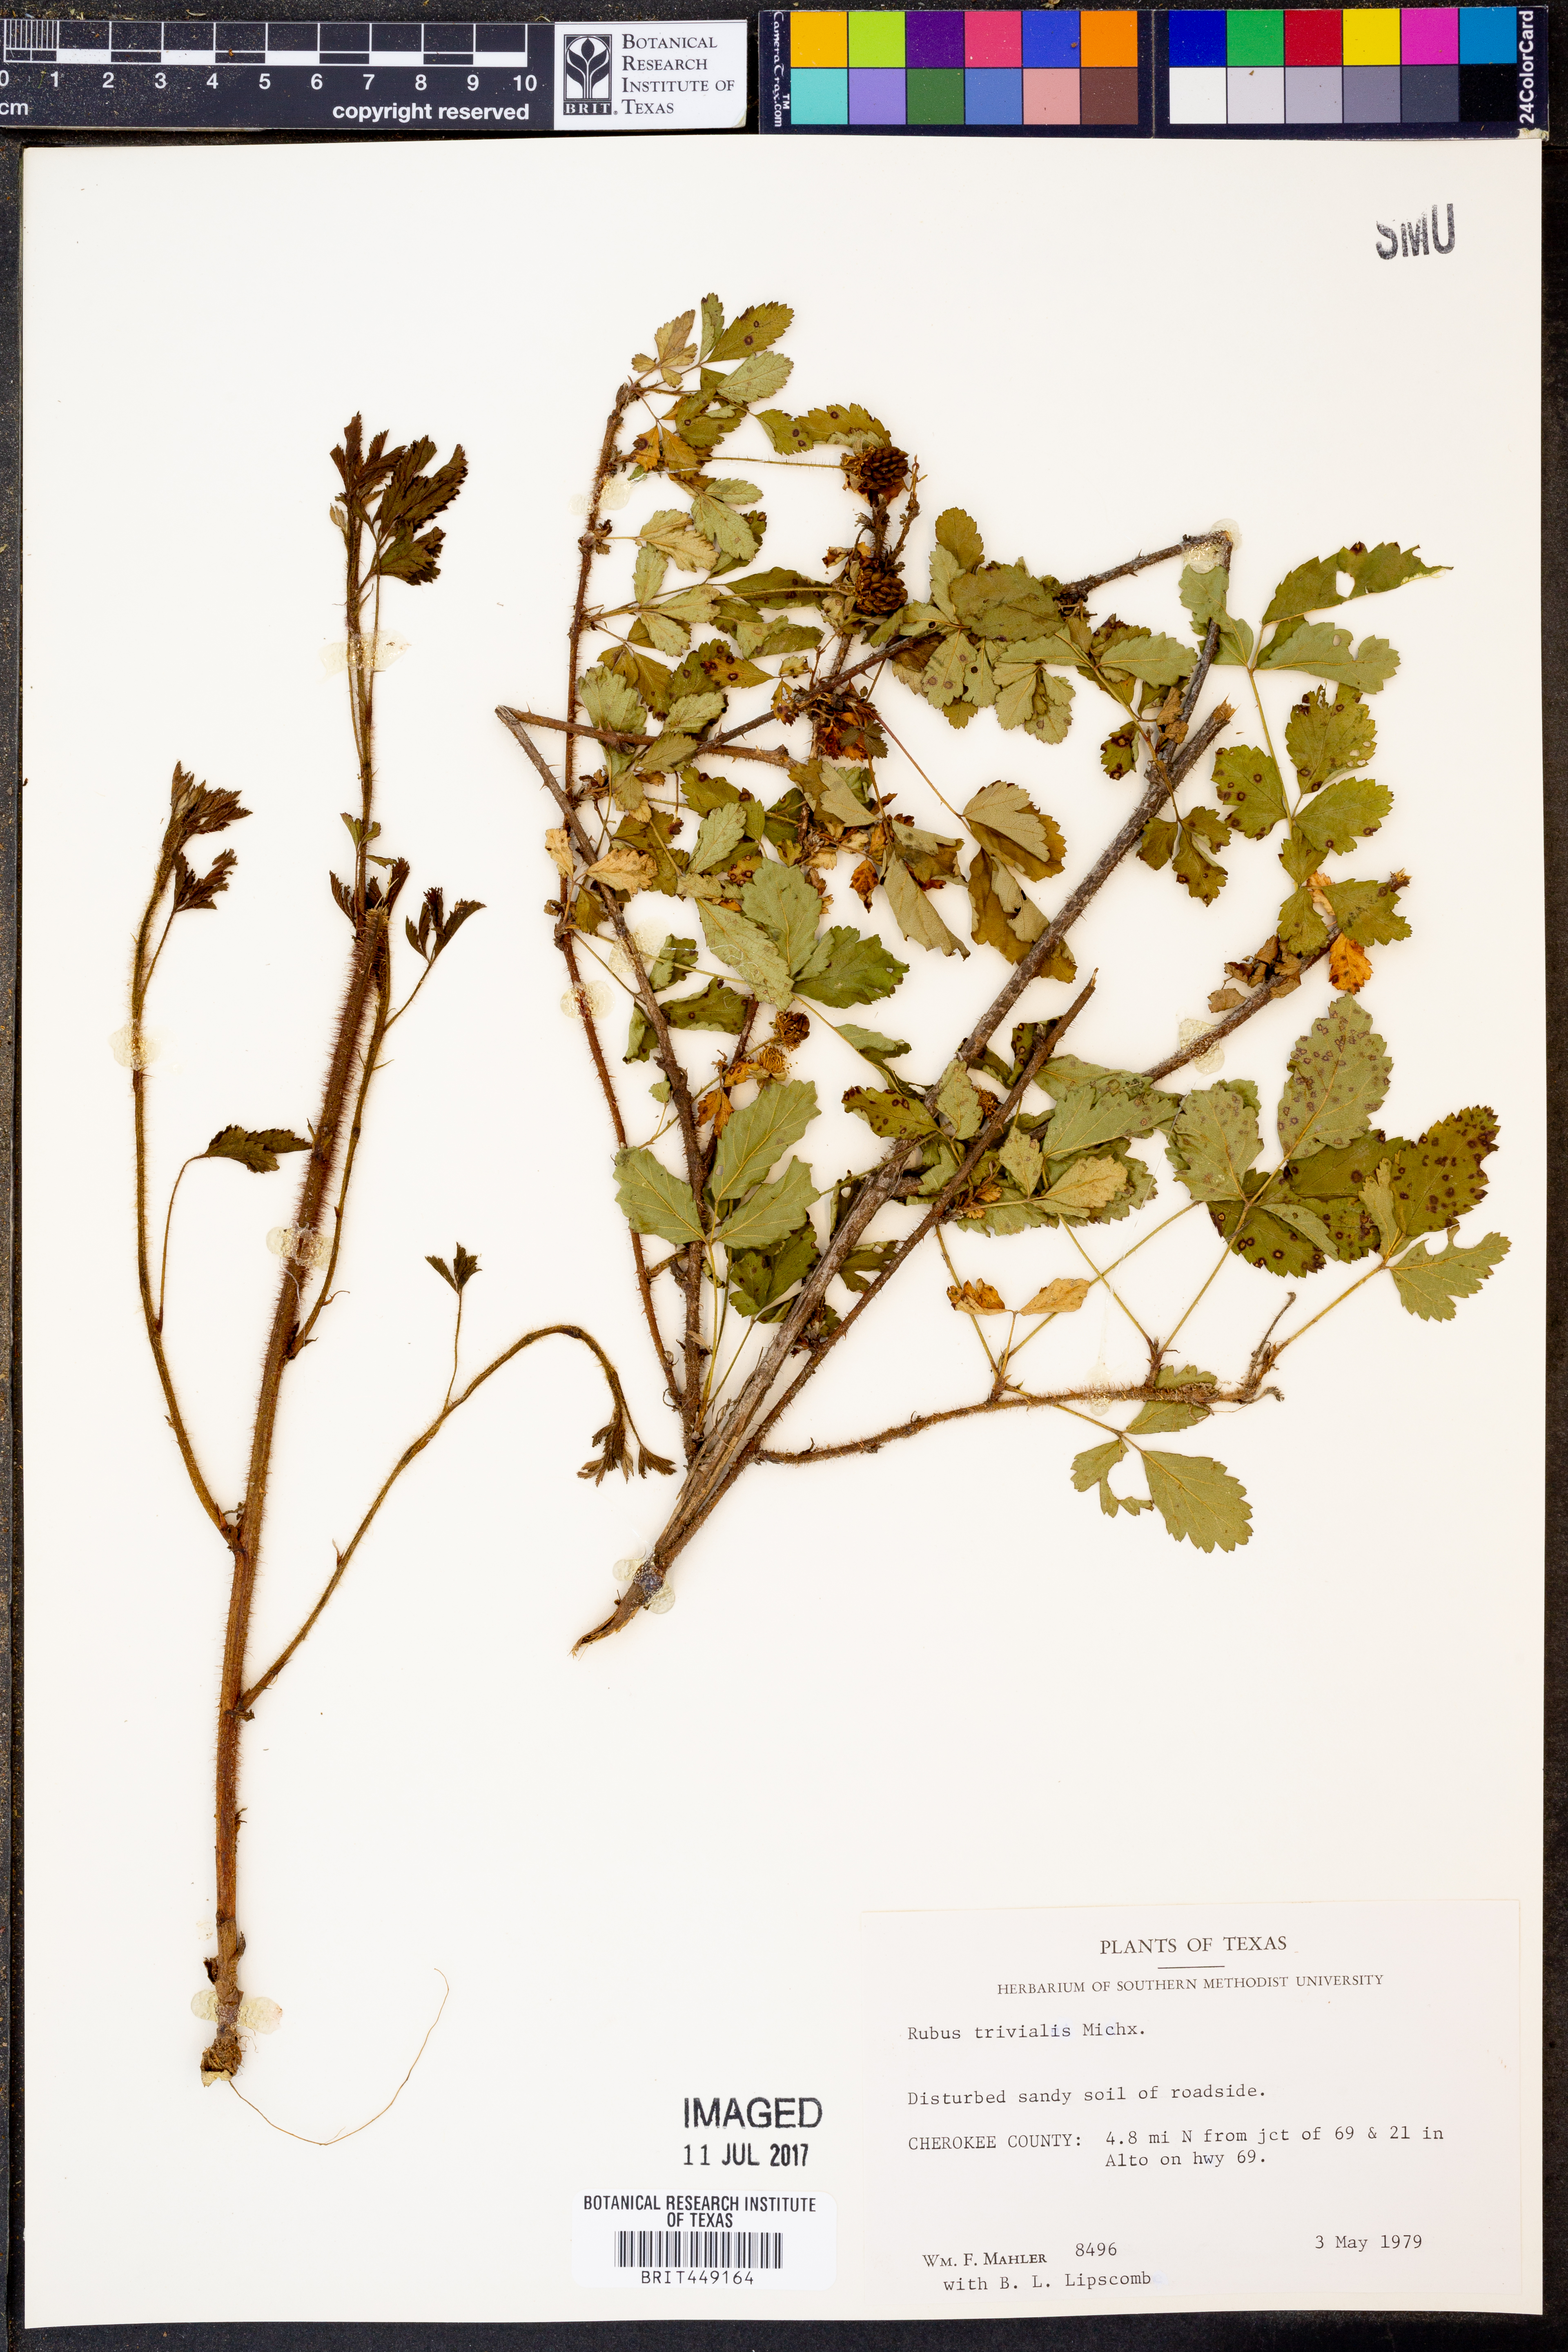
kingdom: Plantae
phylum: Tracheophyta
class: Magnoliopsida
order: Rosales
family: Rosaceae
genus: Rubus
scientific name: Rubus trivialis
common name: Southern dewberry
